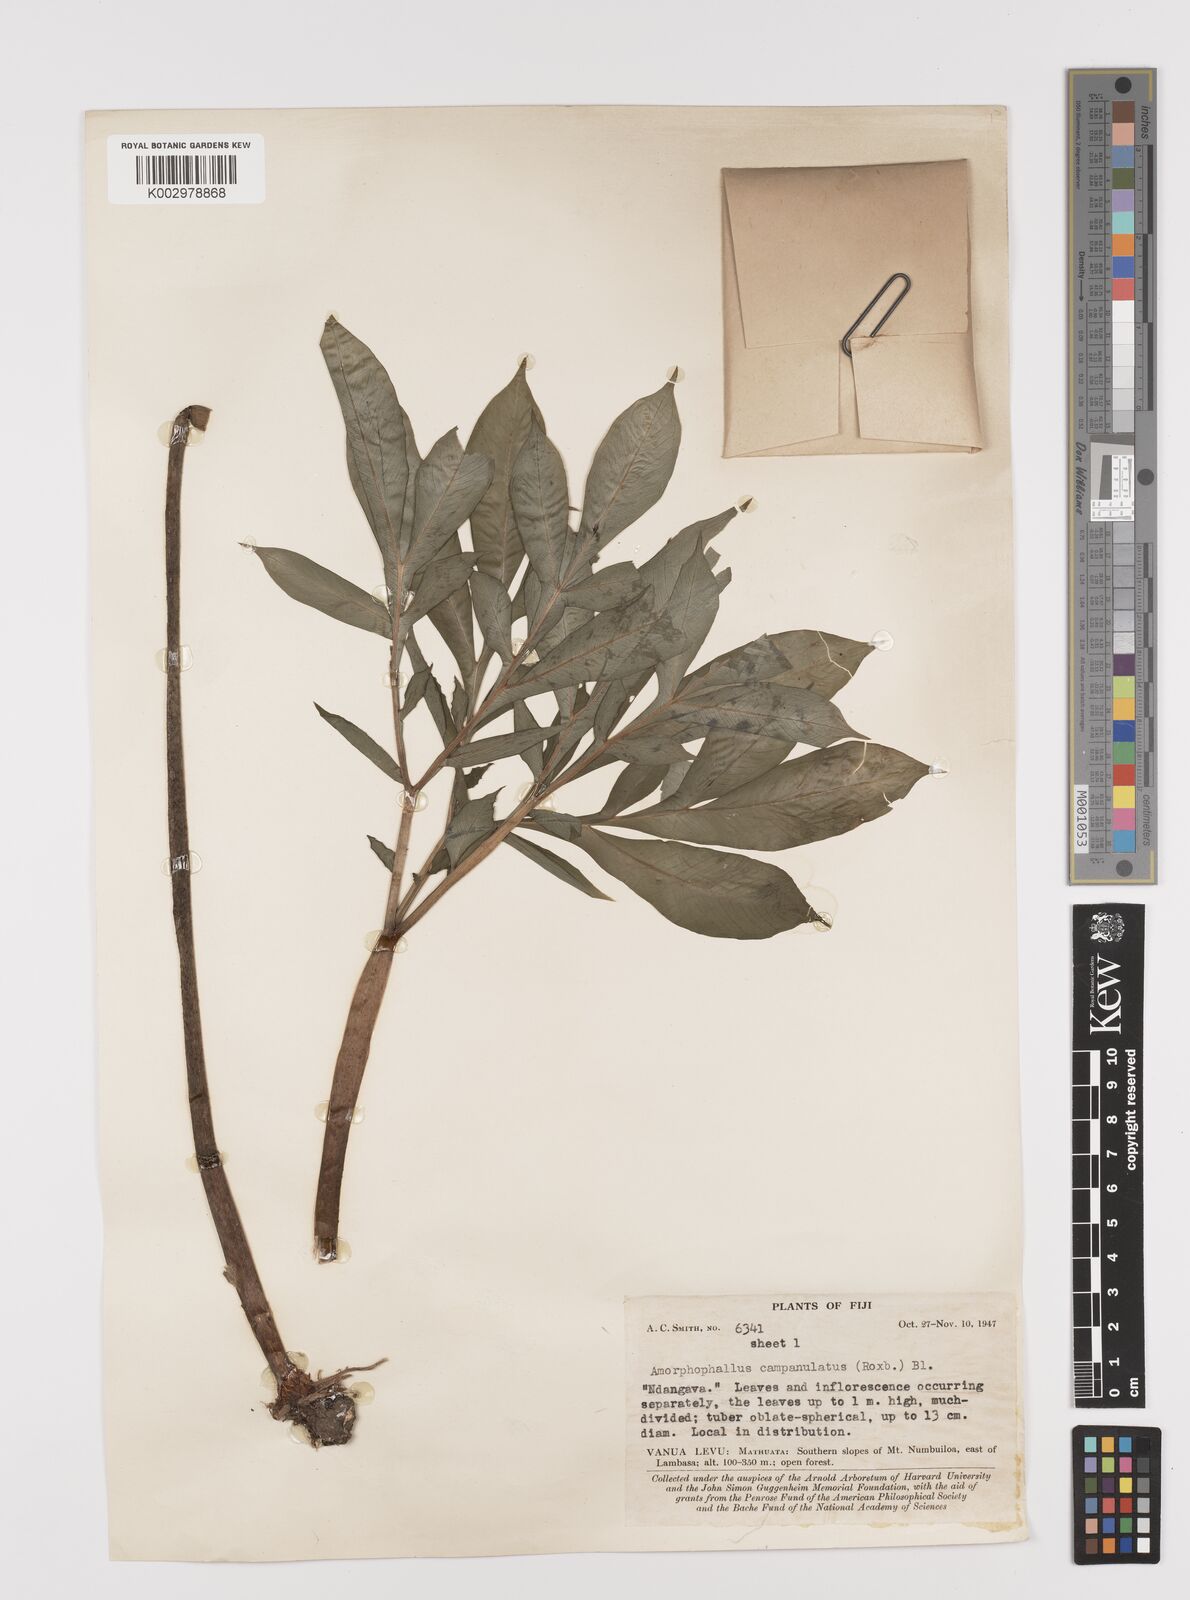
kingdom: Plantae
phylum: Tracheophyta
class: Liliopsida
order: Alismatales
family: Araceae
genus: Amorphophallus
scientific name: Amorphophallus paeoniifolius
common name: Telinga-potato
